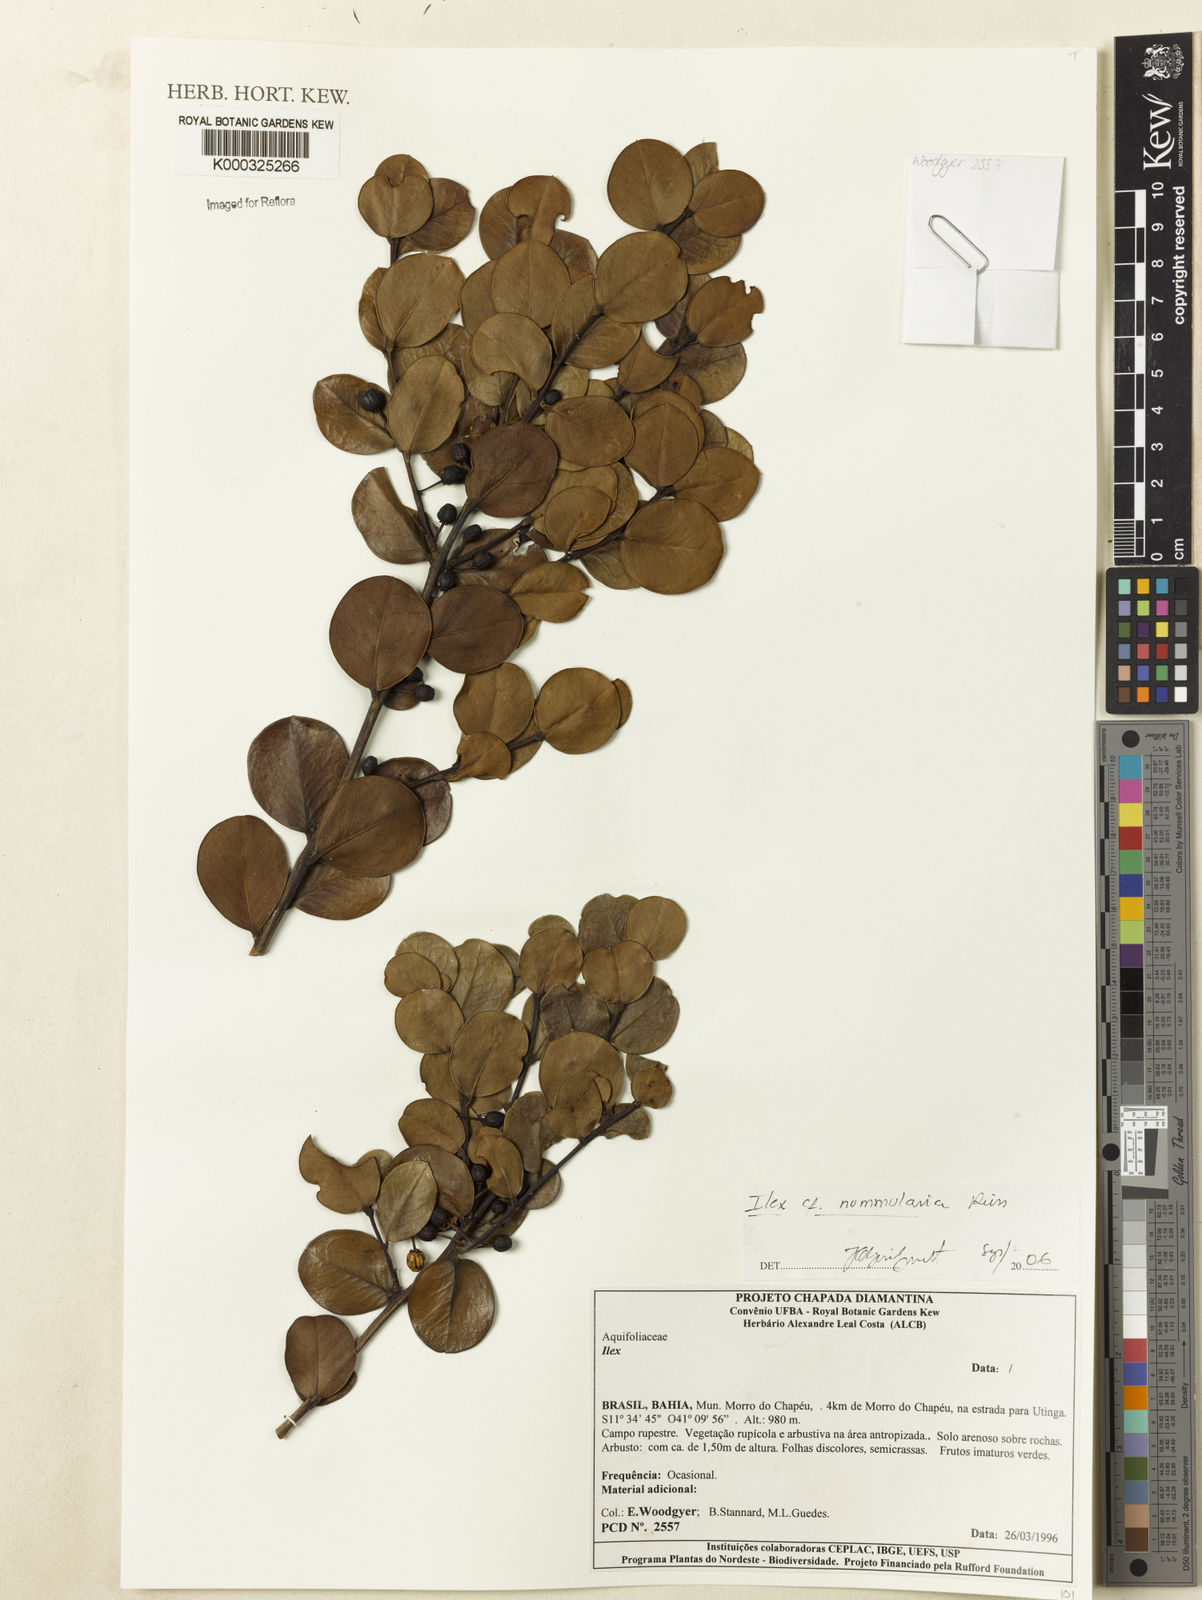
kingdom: Plantae
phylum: Tracheophyta
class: Magnoliopsida
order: Aquifoliales
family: Aquifoliaceae
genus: Ilex
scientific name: Ilex nummularia
